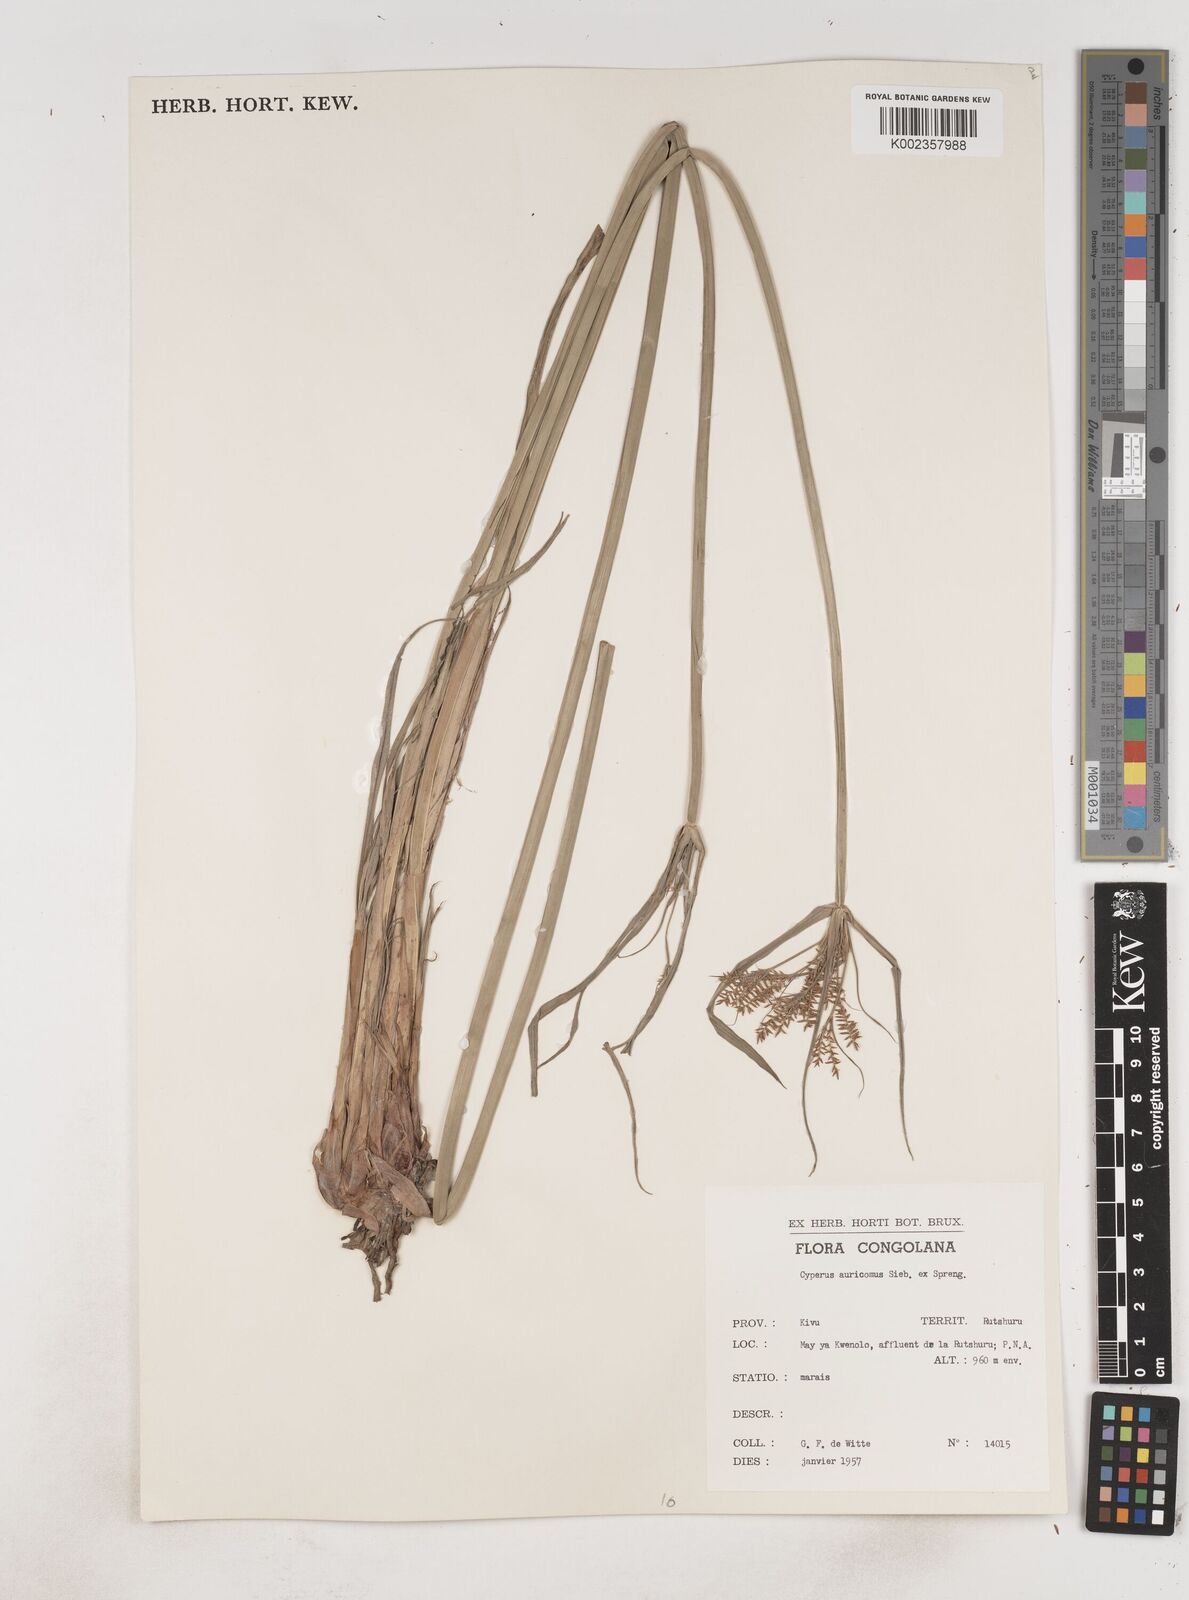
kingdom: Plantae
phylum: Tracheophyta
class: Liliopsida
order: Poales
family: Cyperaceae
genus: Cyperus
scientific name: Cyperus digitatus
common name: Finger flatsedge
